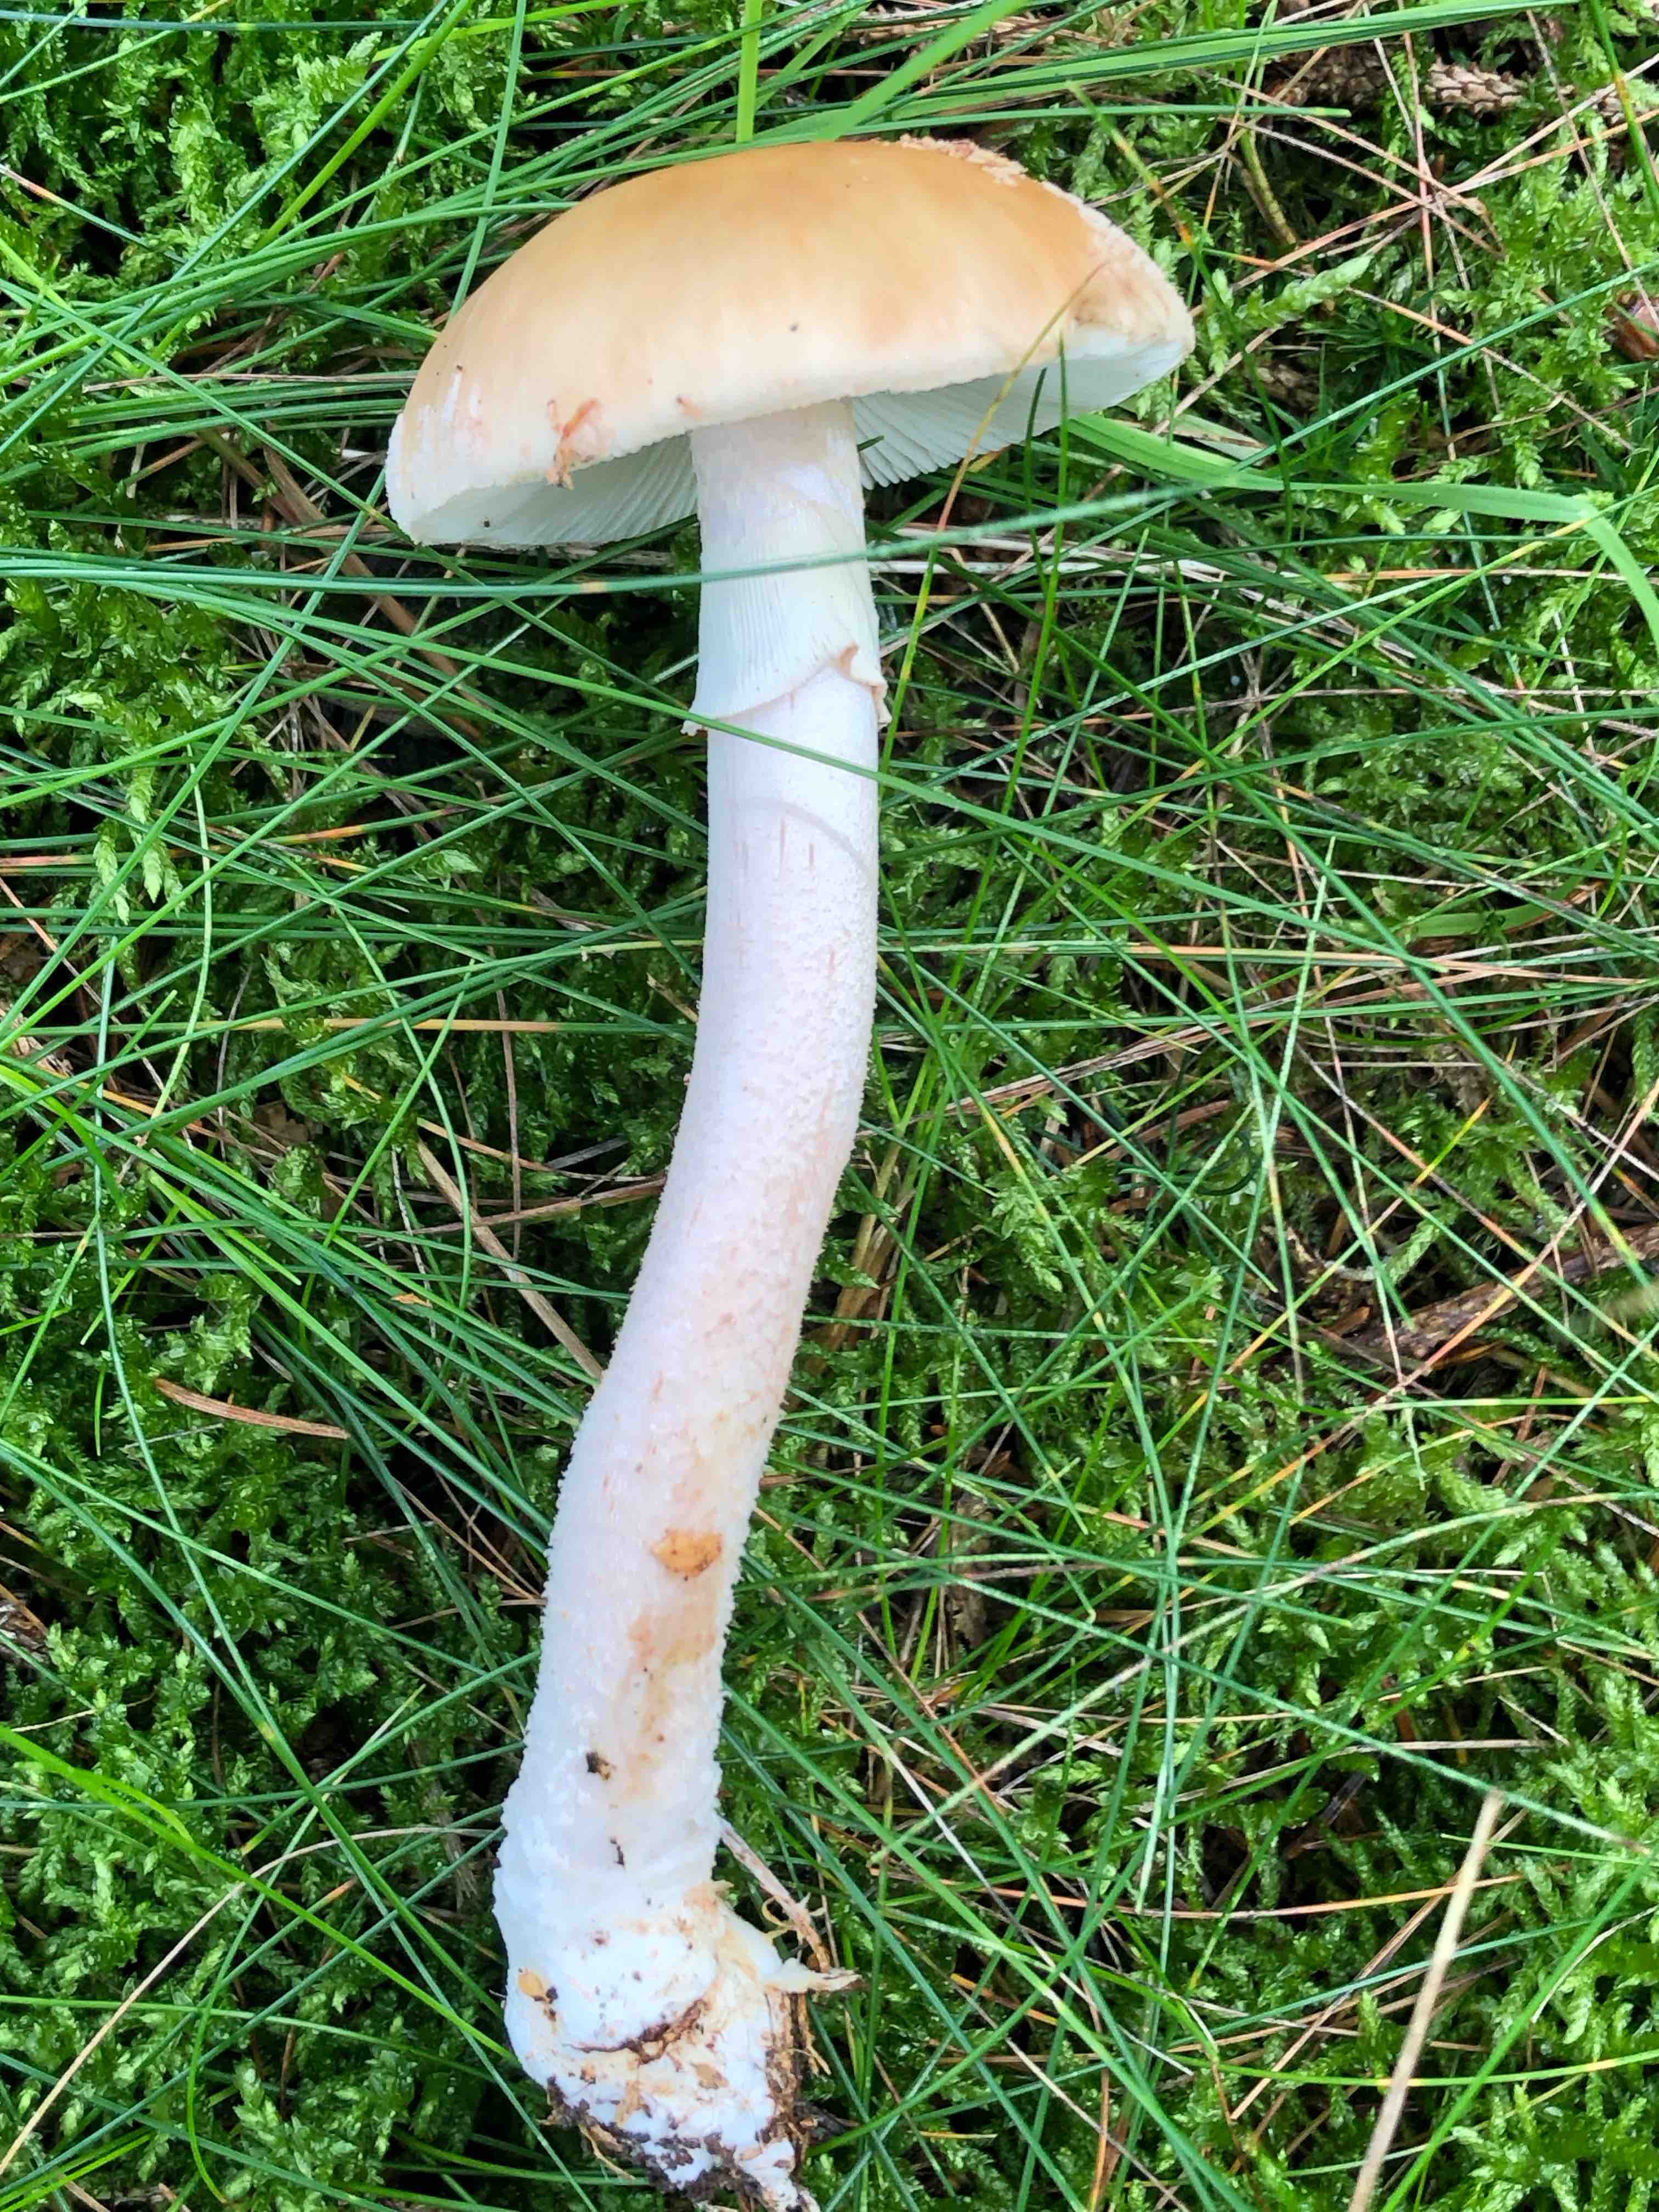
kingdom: Fungi
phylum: Basidiomycota
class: Agaricomycetes
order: Agaricales
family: Amanitaceae
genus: Amanita
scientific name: Amanita rubescens
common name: rødmende fluesvamp
